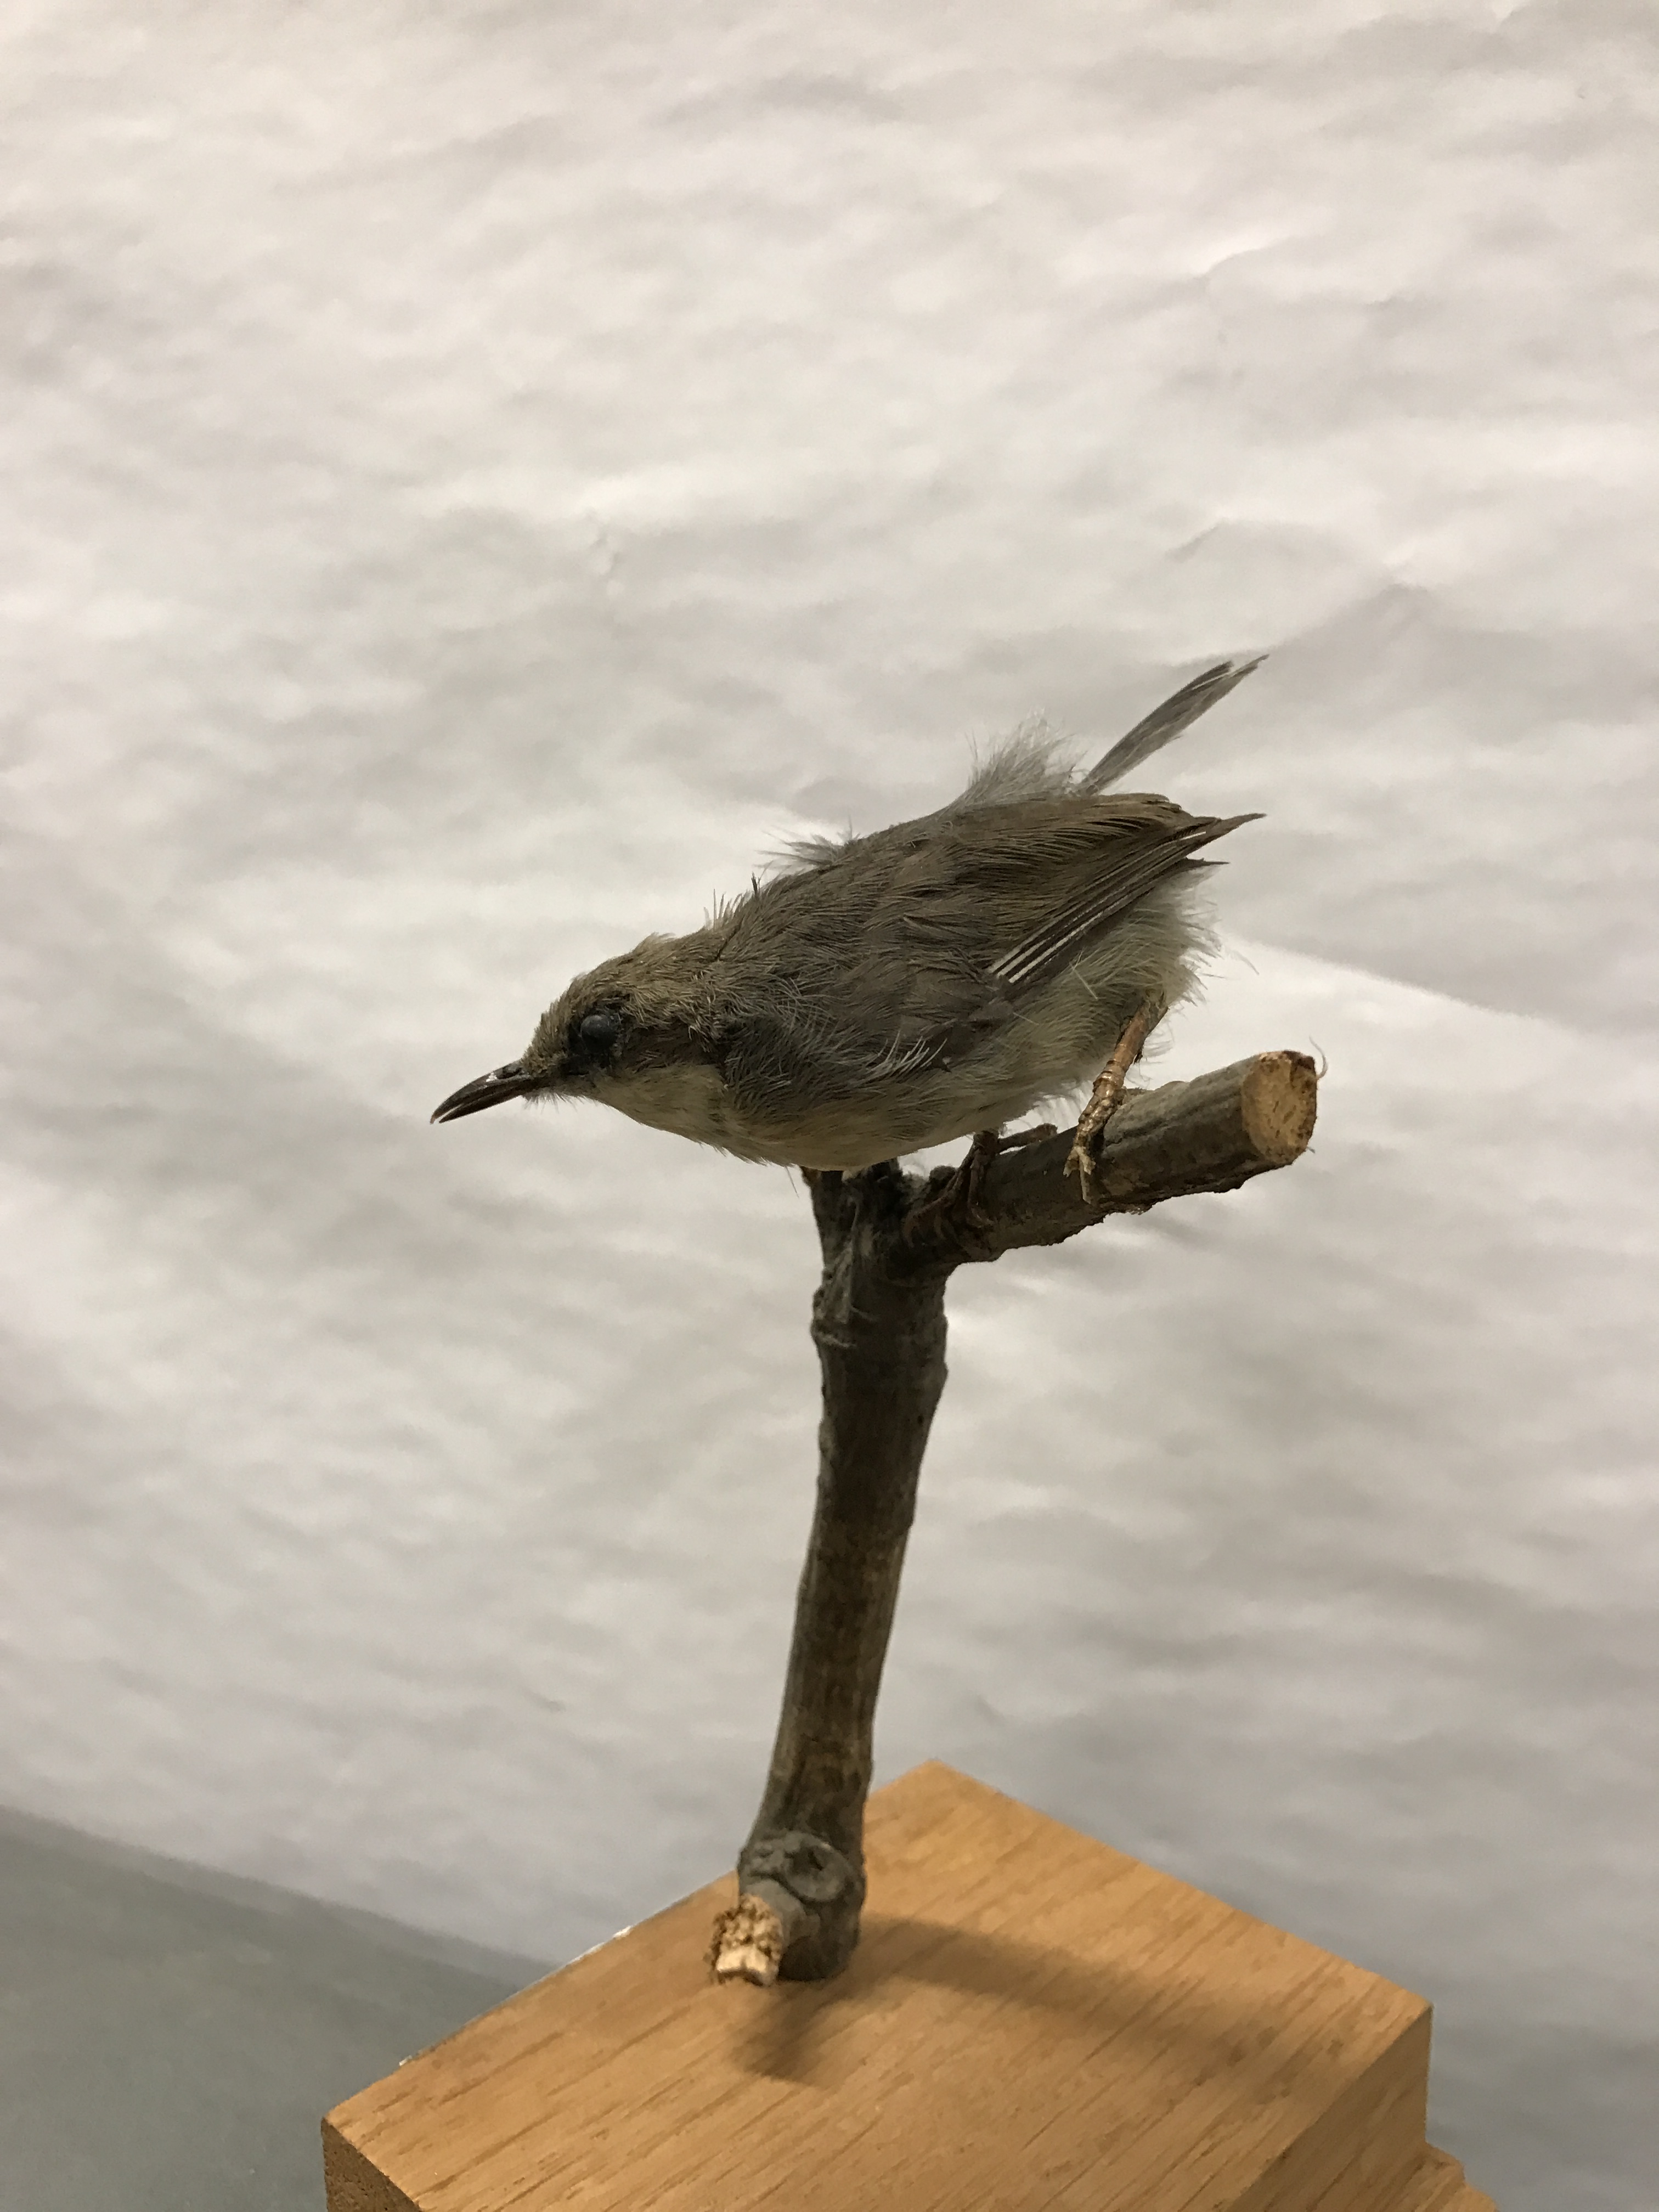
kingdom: Animalia
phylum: Chordata
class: Aves
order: Passeriformes
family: Cisticolidae
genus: Apalis
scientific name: Apalis cinerea
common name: Grey apalis
